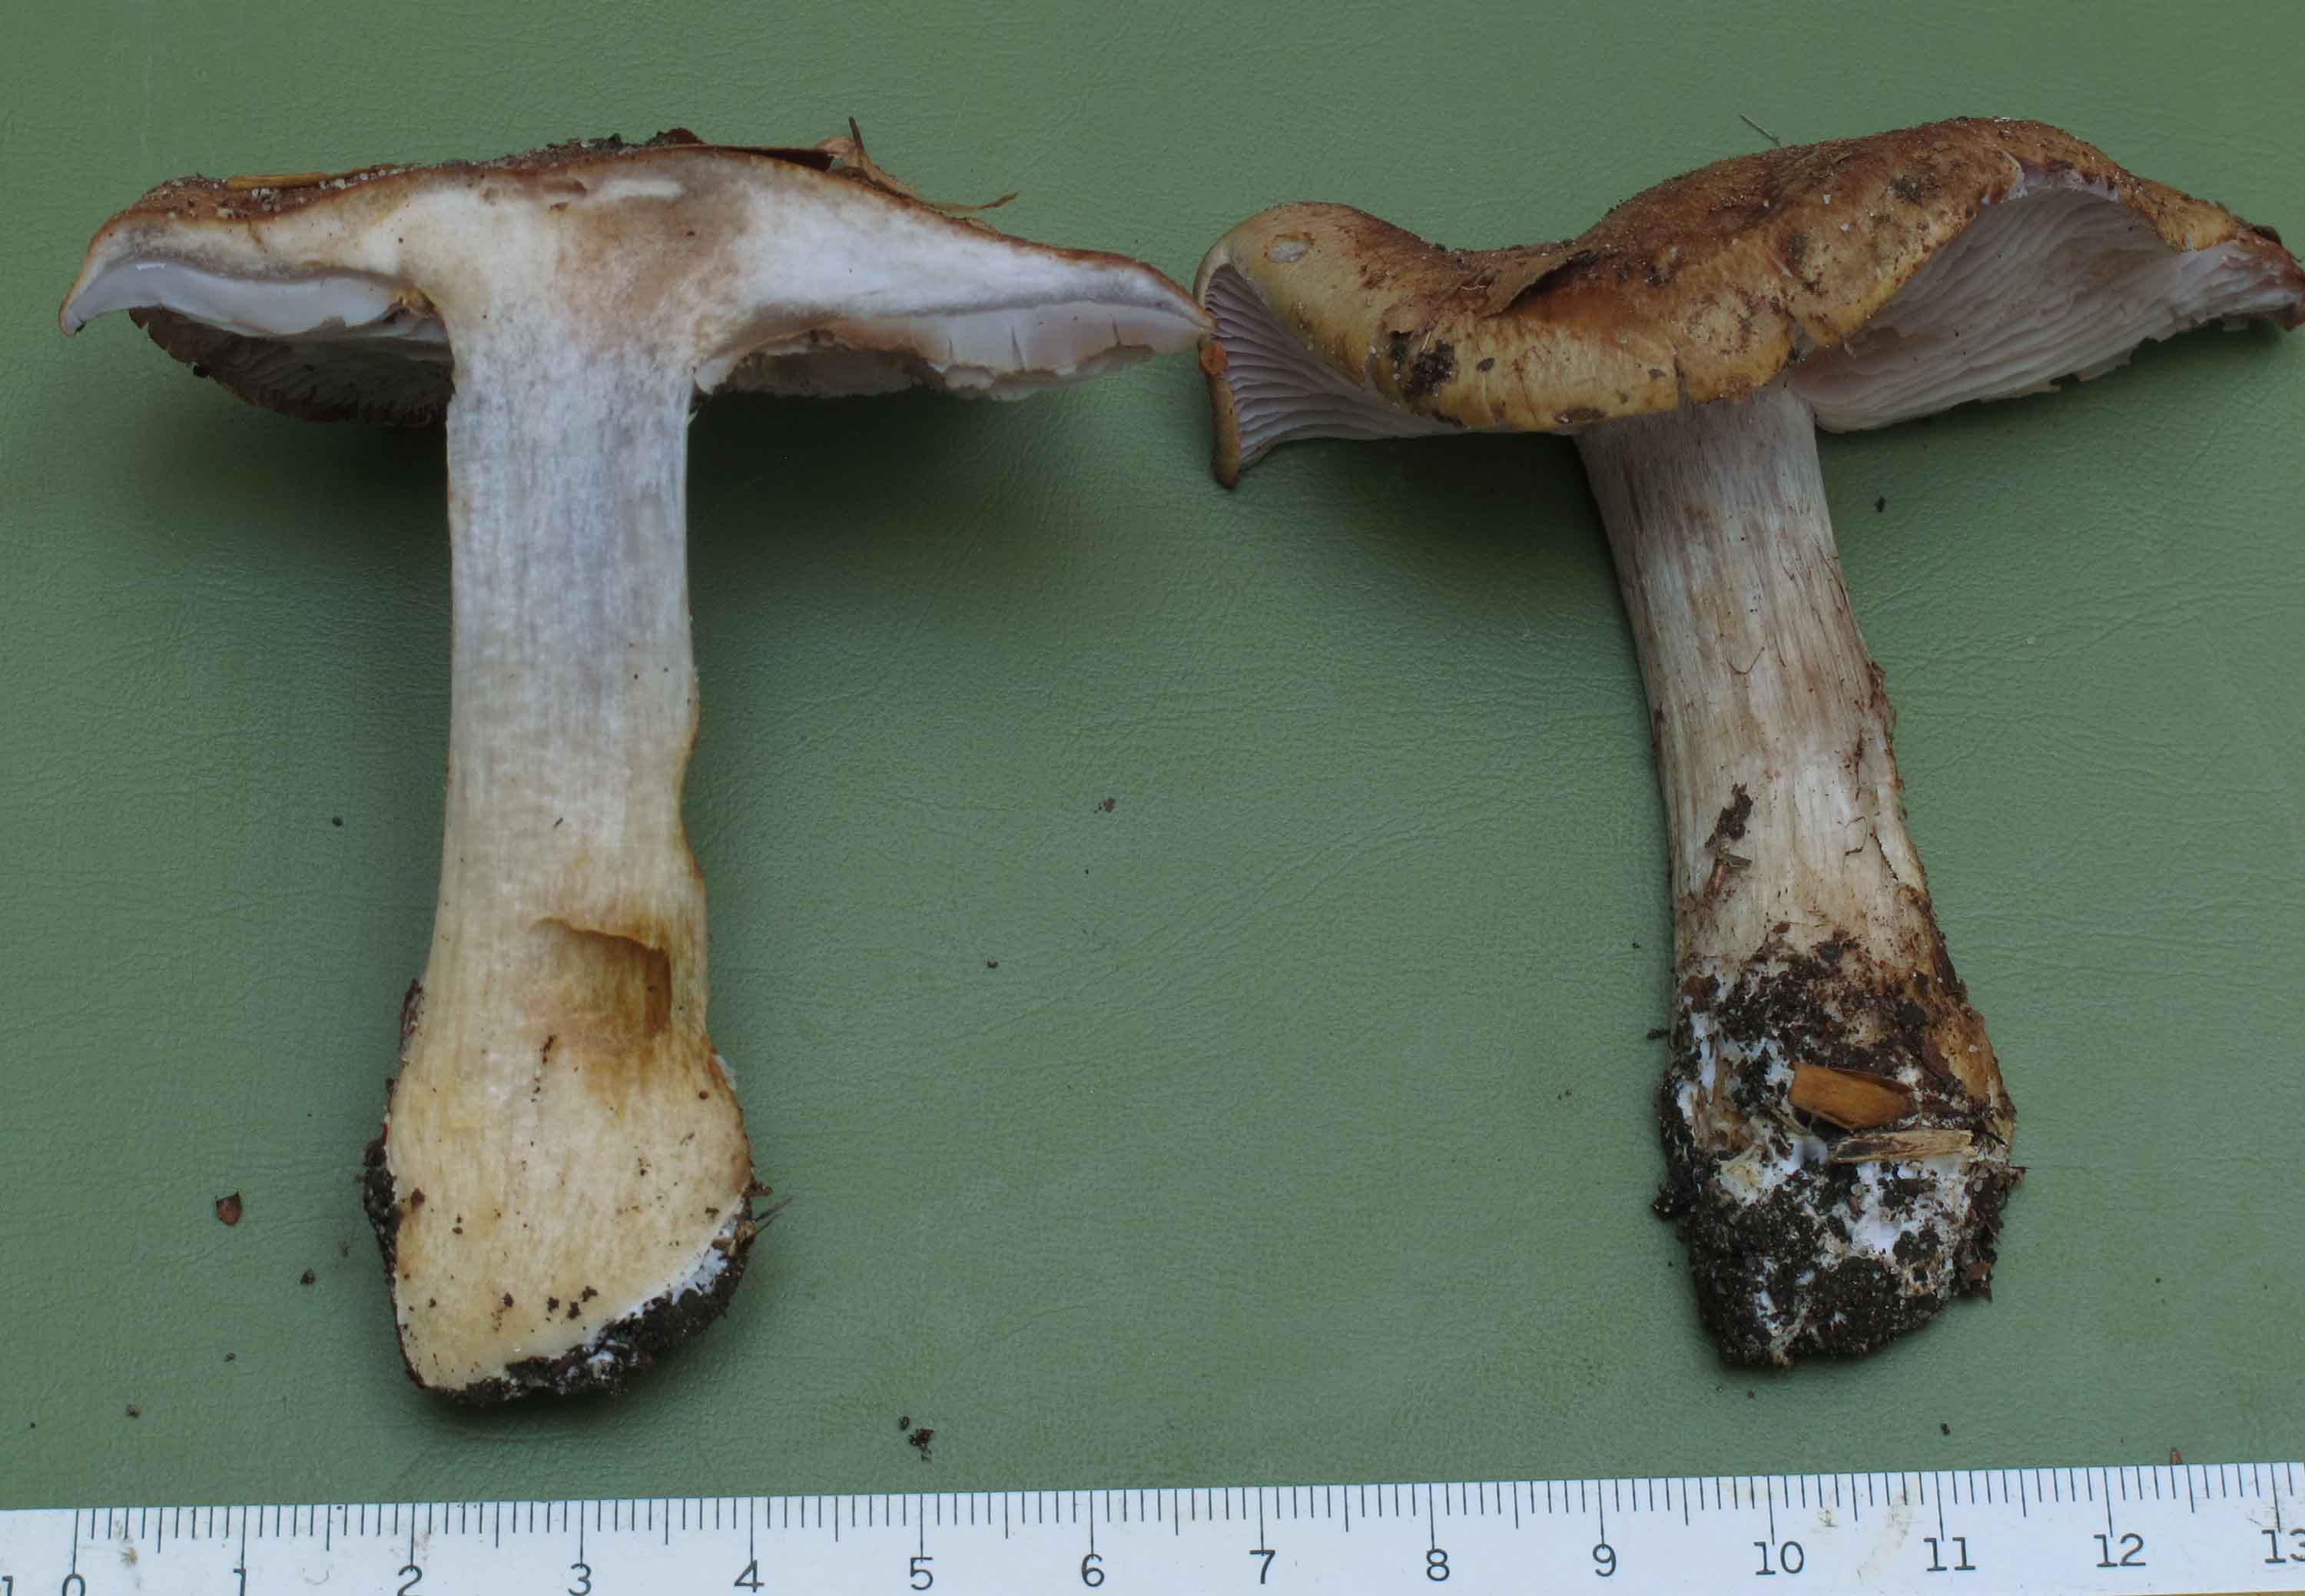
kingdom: Fungi
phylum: Basidiomycota
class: Agaricomycetes
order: Agaricales
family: Cortinariaceae
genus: Phlegmacium
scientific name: Phlegmacium tirolianum
